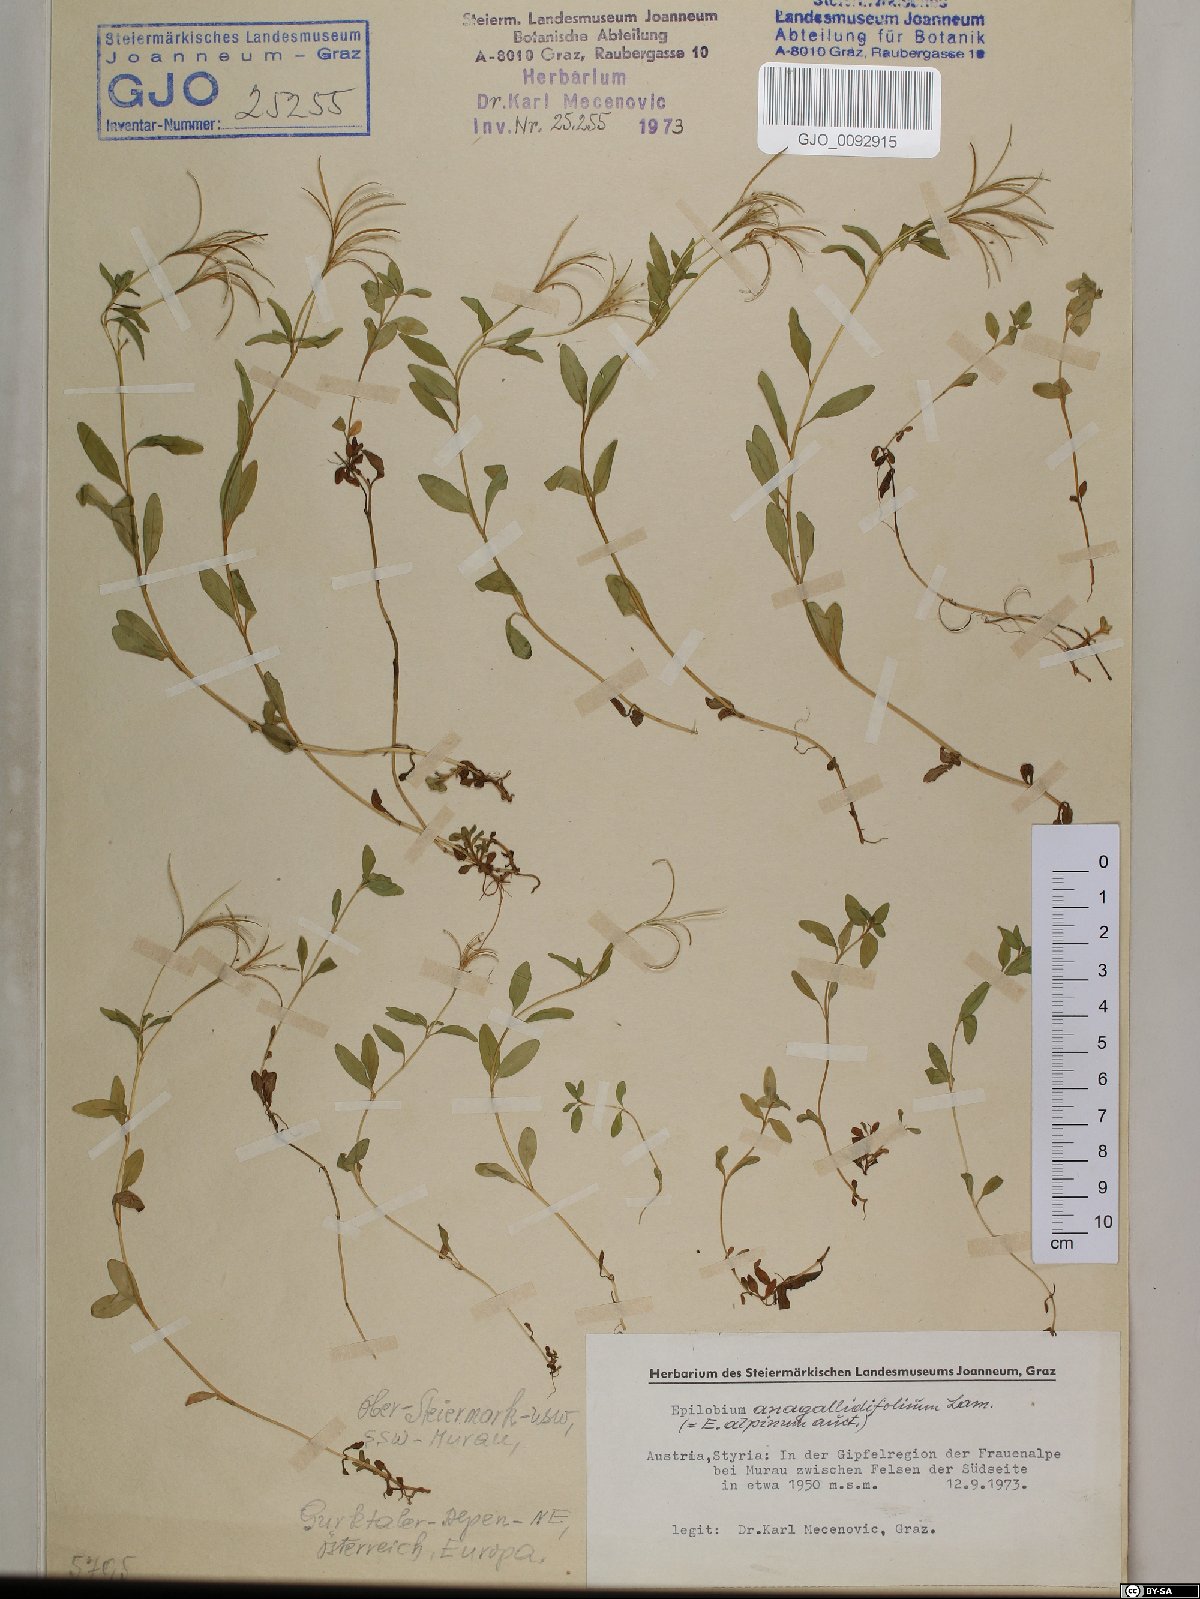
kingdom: Plantae
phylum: Tracheophyta
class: Magnoliopsida
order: Myrtales
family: Onagraceae
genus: Epilobium
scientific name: Epilobium anagallidifolium
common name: Alpine willowherb
